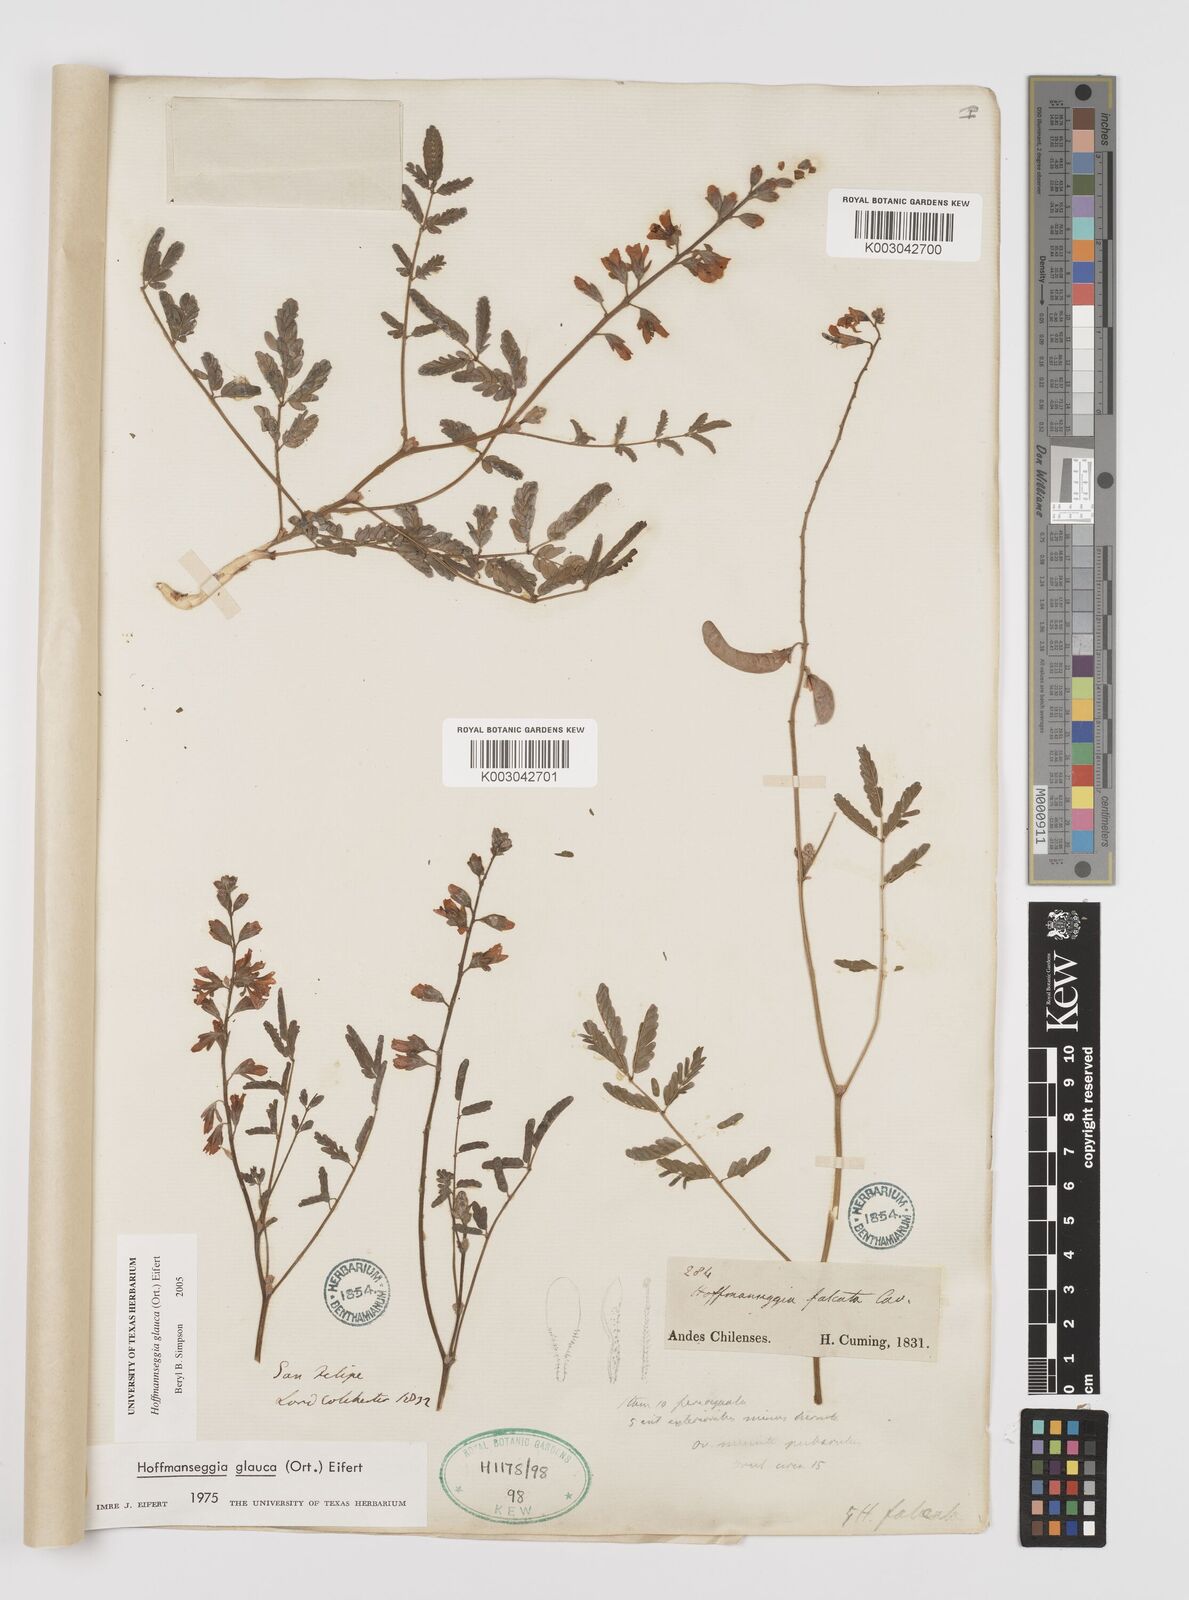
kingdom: Plantae
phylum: Tracheophyta
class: Magnoliopsida
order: Fabales
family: Fabaceae
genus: Hoffmannseggia
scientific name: Hoffmannseggia glauca
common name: Pignut
